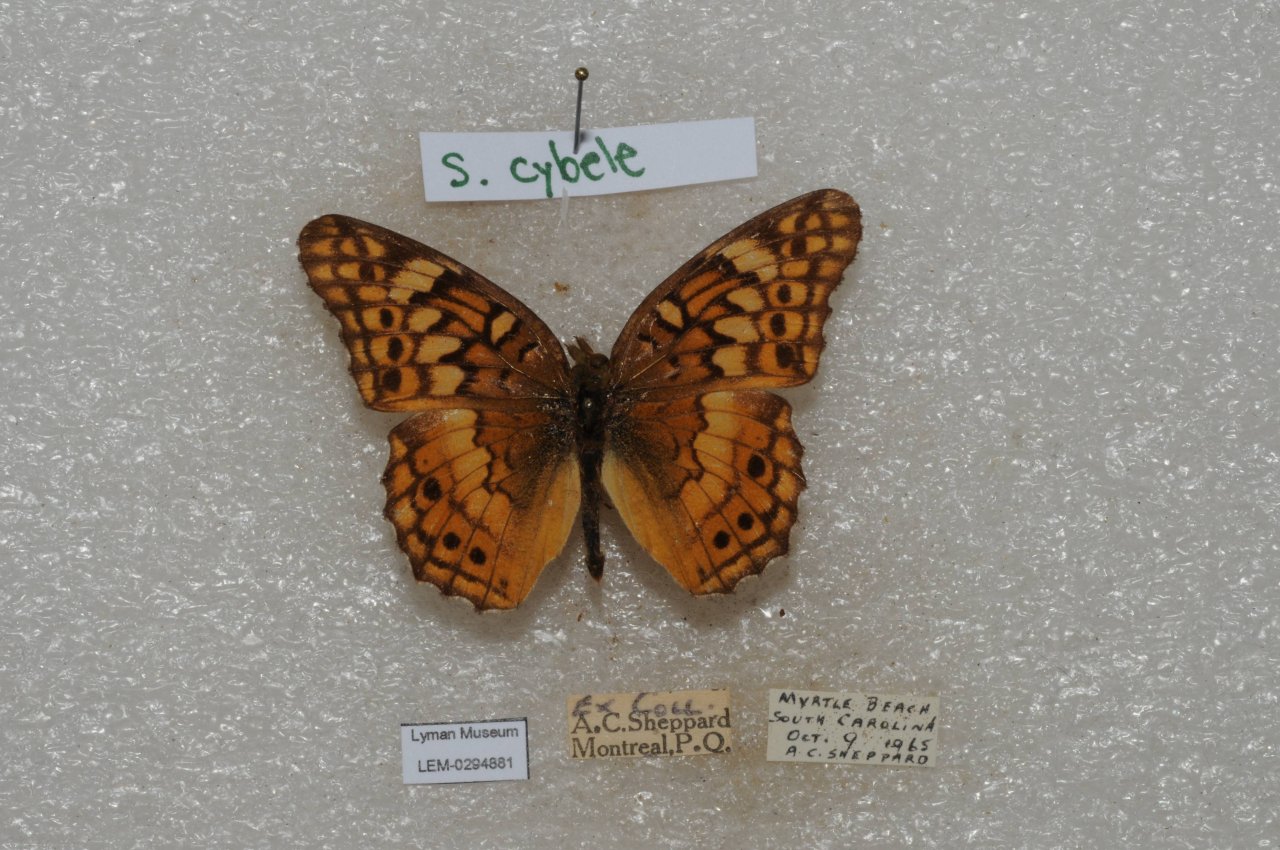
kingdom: Animalia
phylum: Arthropoda
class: Insecta
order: Lepidoptera
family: Nymphalidae
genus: Euptoieta
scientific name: Euptoieta claudia
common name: Variegated Fritillary
